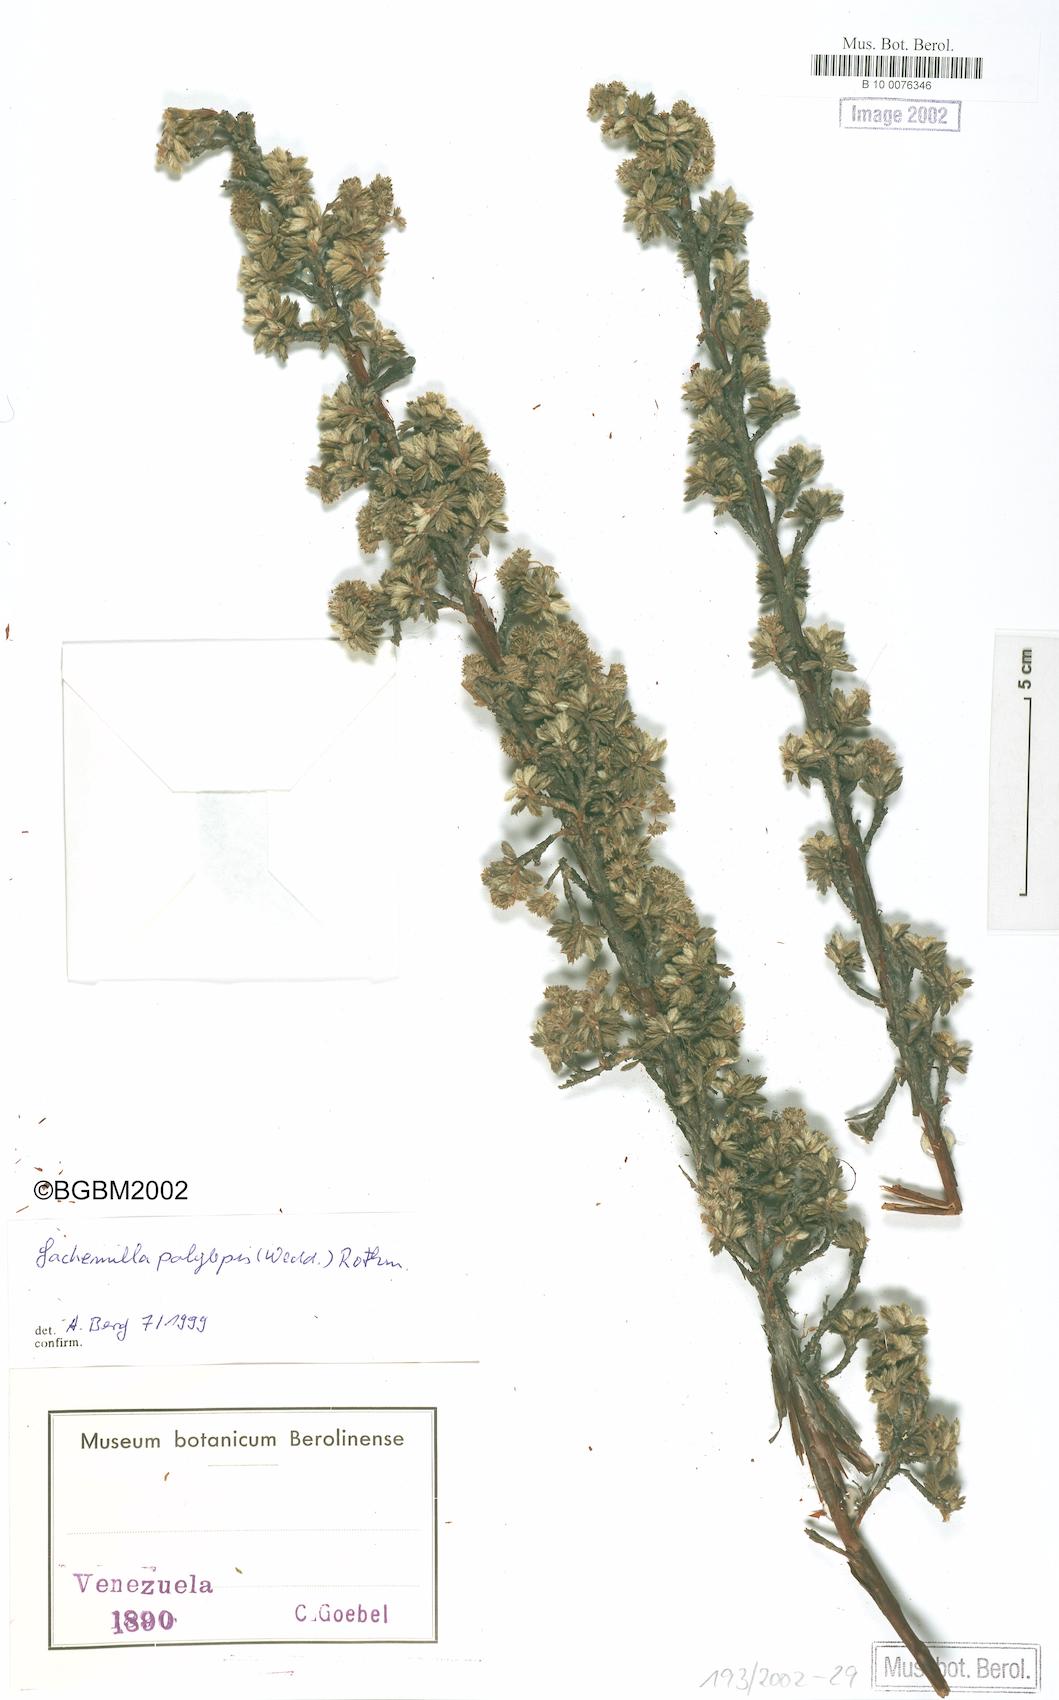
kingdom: Plantae
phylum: Tracheophyta
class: Magnoliopsida
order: Rosales
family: Rosaceae
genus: Lachemilla
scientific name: Lachemilla polylepis
